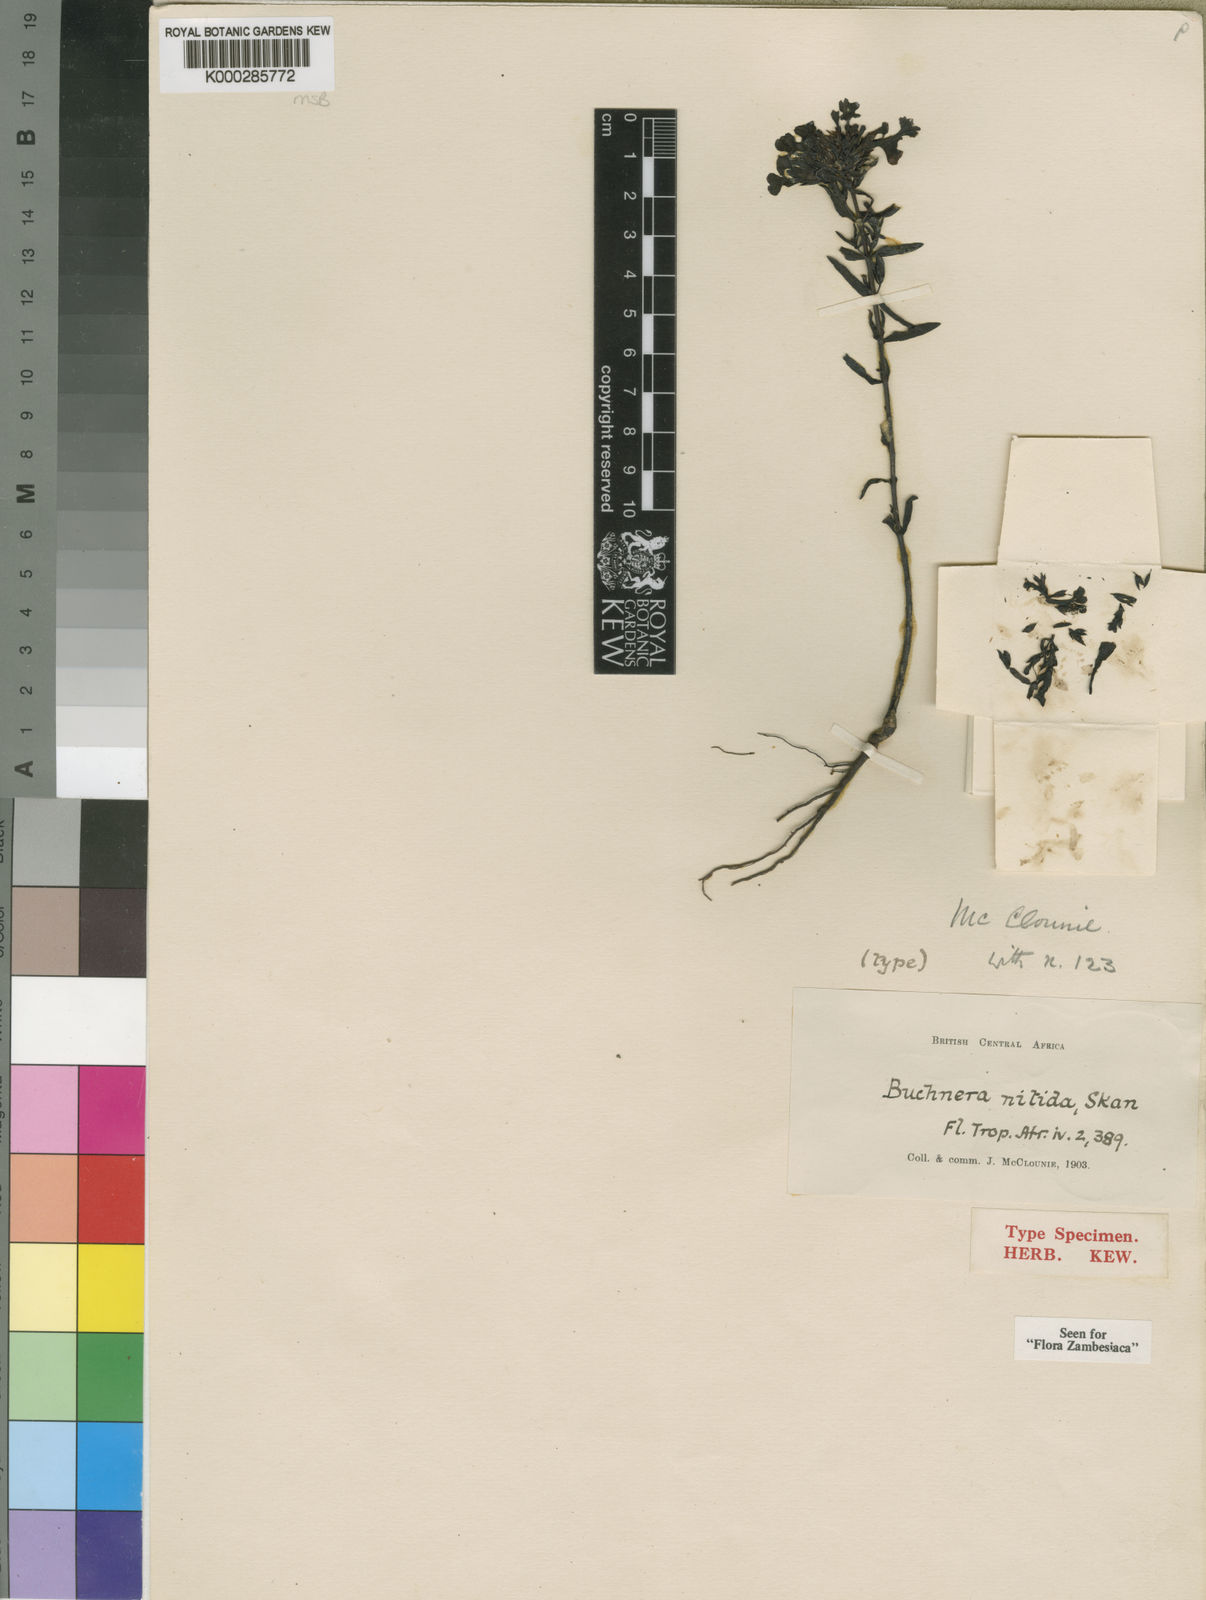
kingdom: Plantae
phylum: Tracheophyta
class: Magnoliopsida
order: Lamiales
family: Orobanchaceae
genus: Buchnera
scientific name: Buchnera nitida
